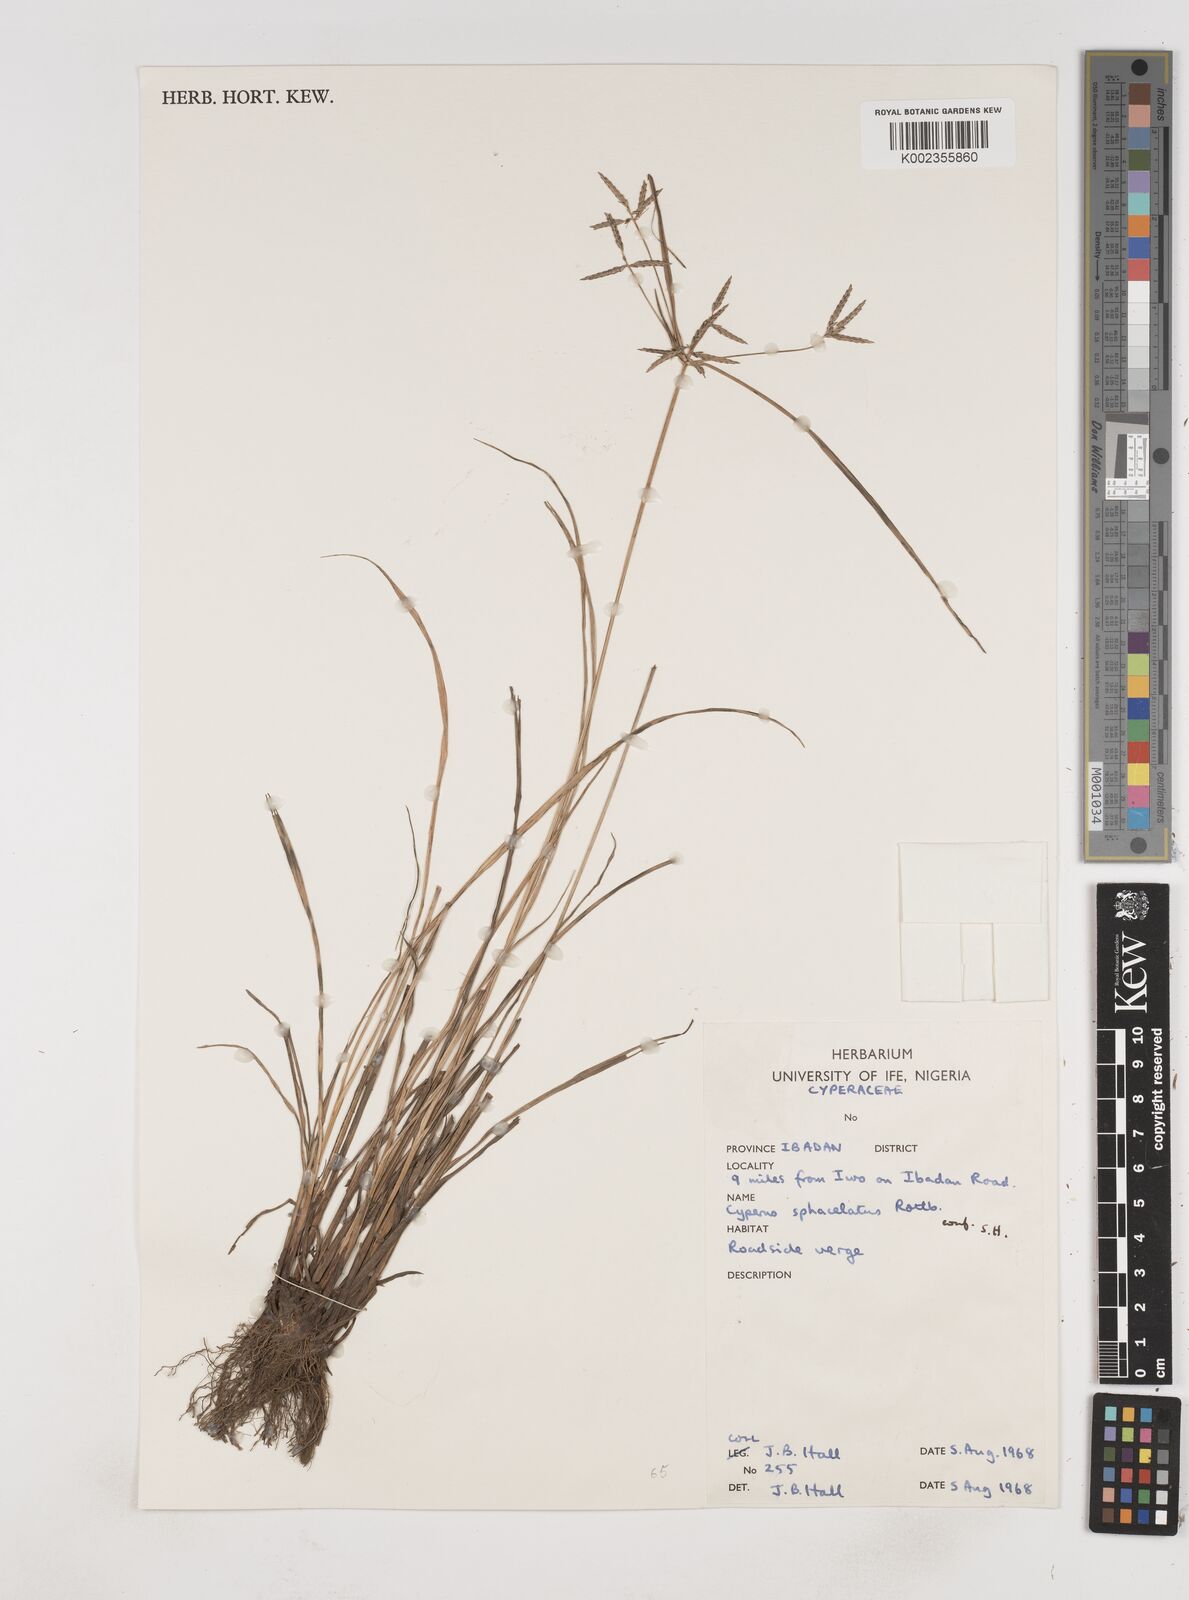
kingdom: Plantae
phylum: Tracheophyta
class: Liliopsida
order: Poales
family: Cyperaceae
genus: Cyperus
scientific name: Cyperus sphacelatus
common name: Roadside flatsedge
